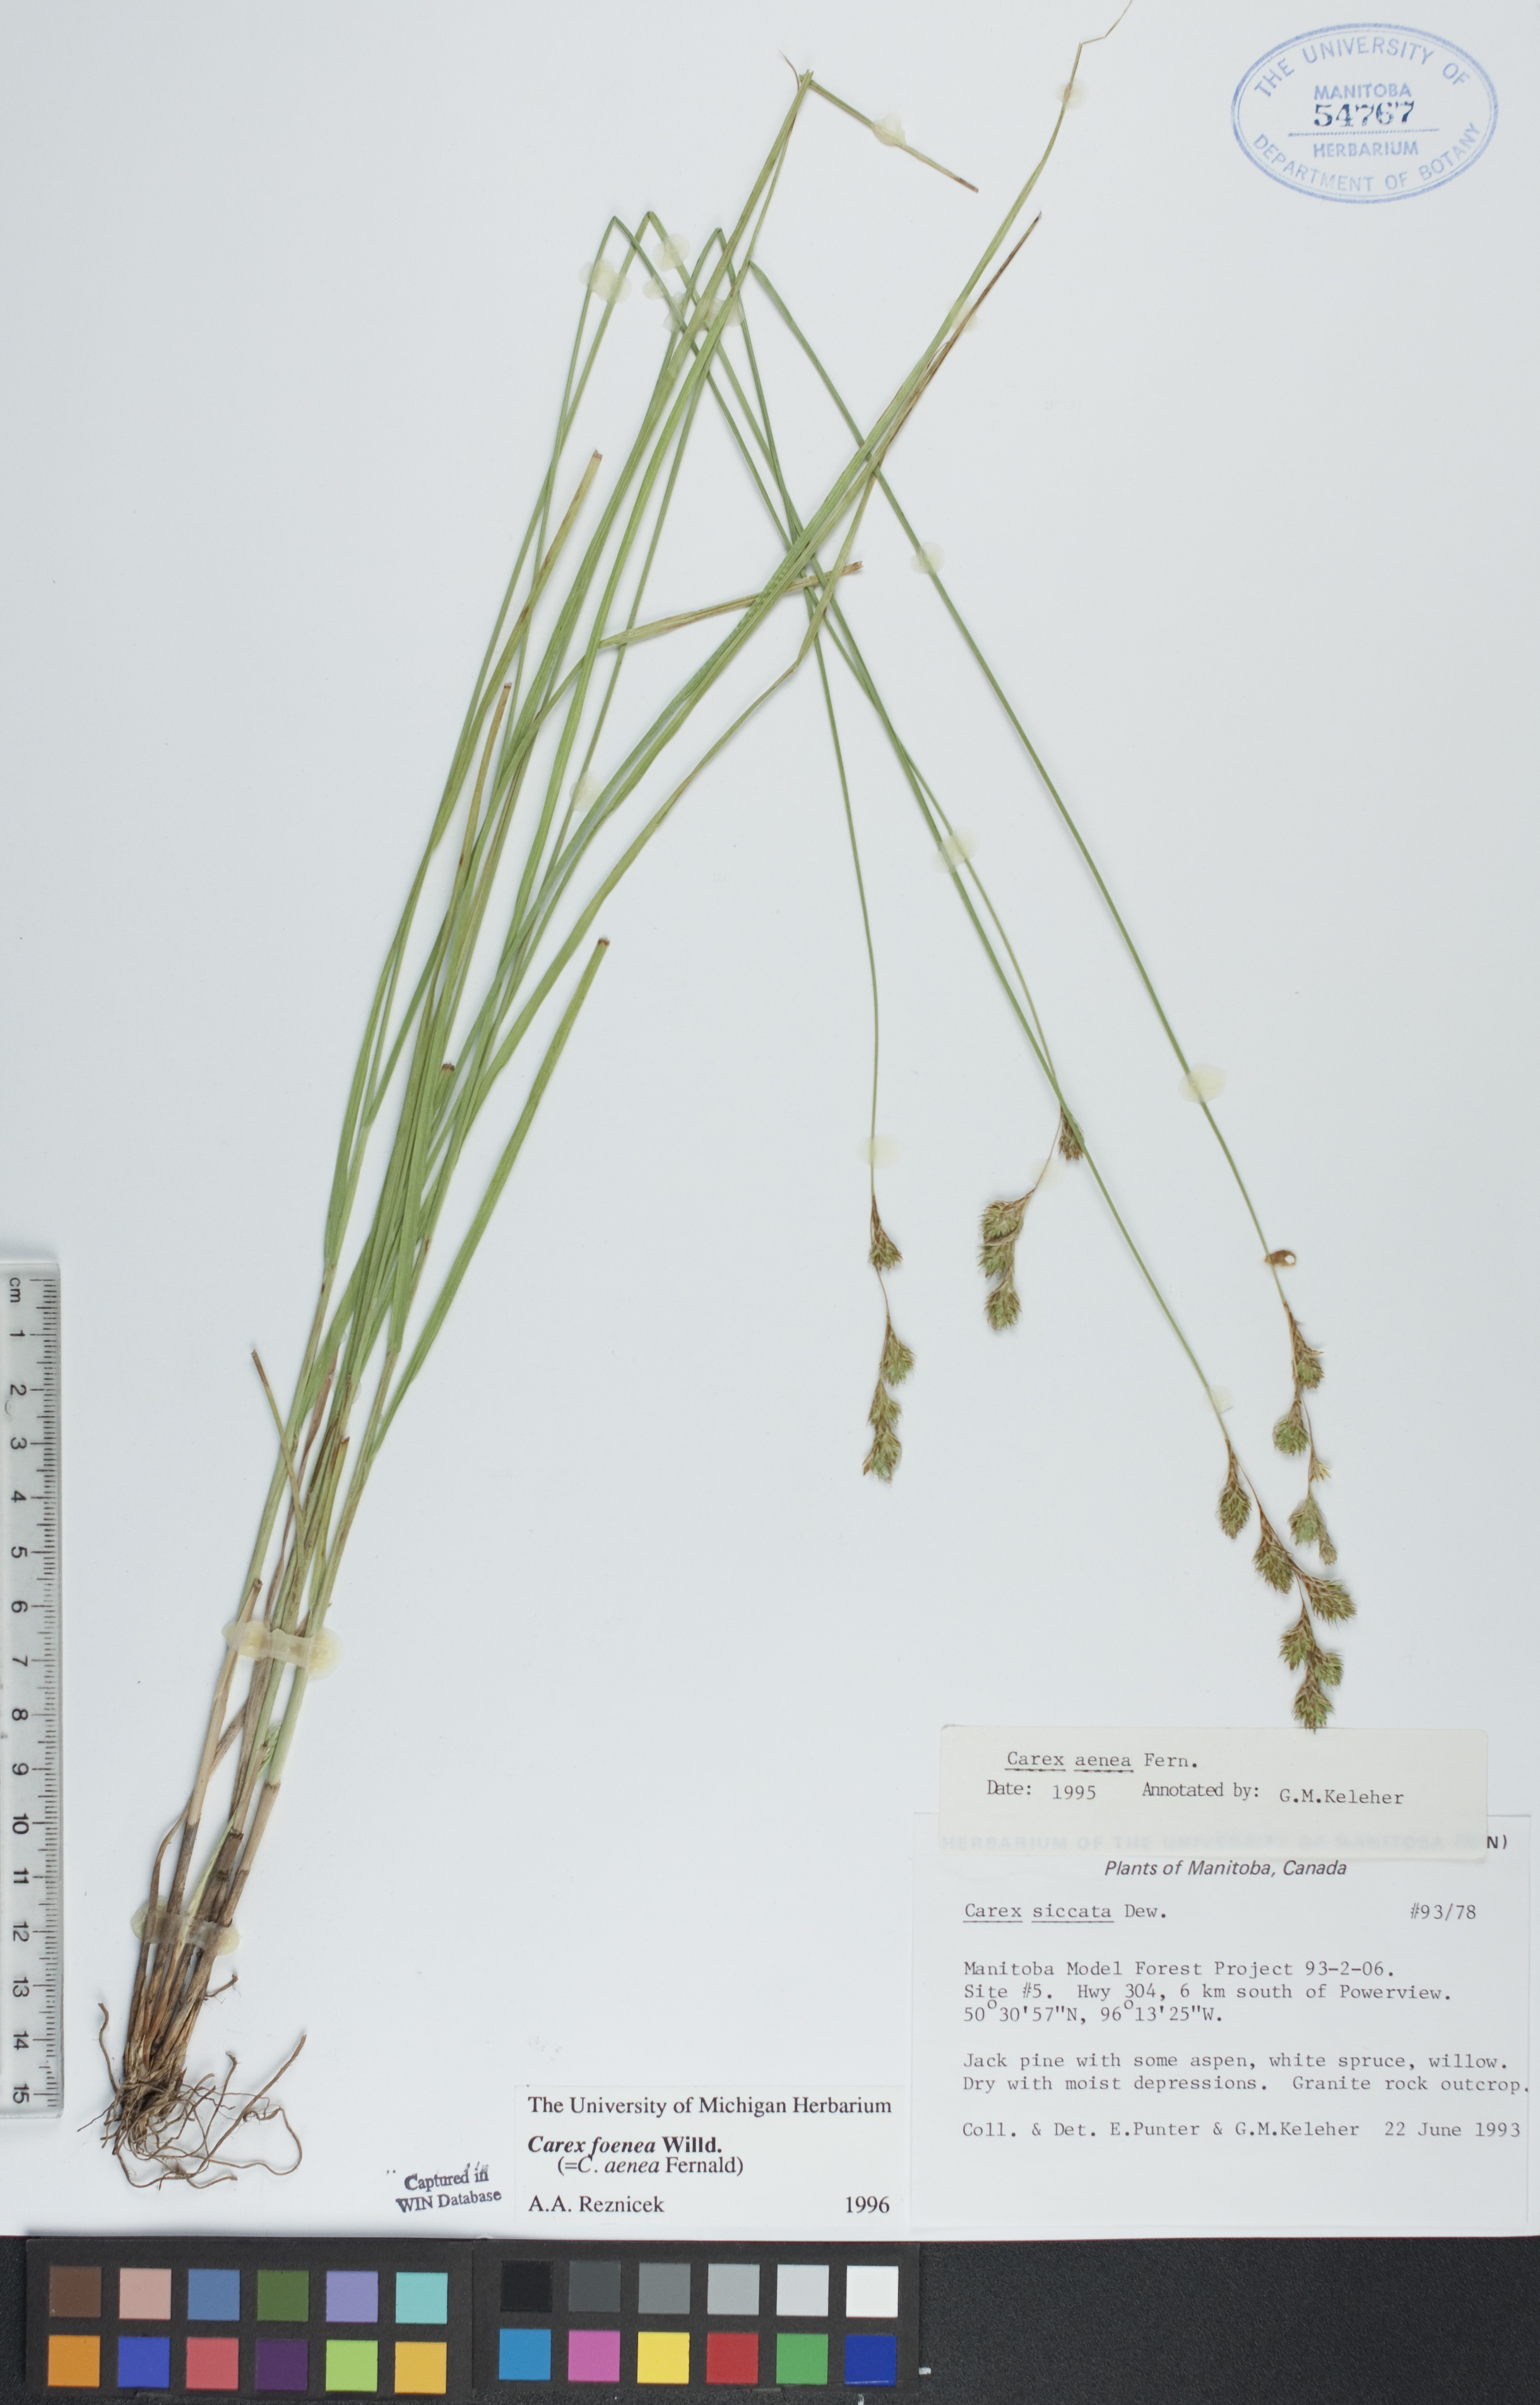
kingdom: Plantae
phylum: Tracheophyta
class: Liliopsida
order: Poales
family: Cyperaceae
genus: Carex
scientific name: Carex foenea
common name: Bronze sedge
